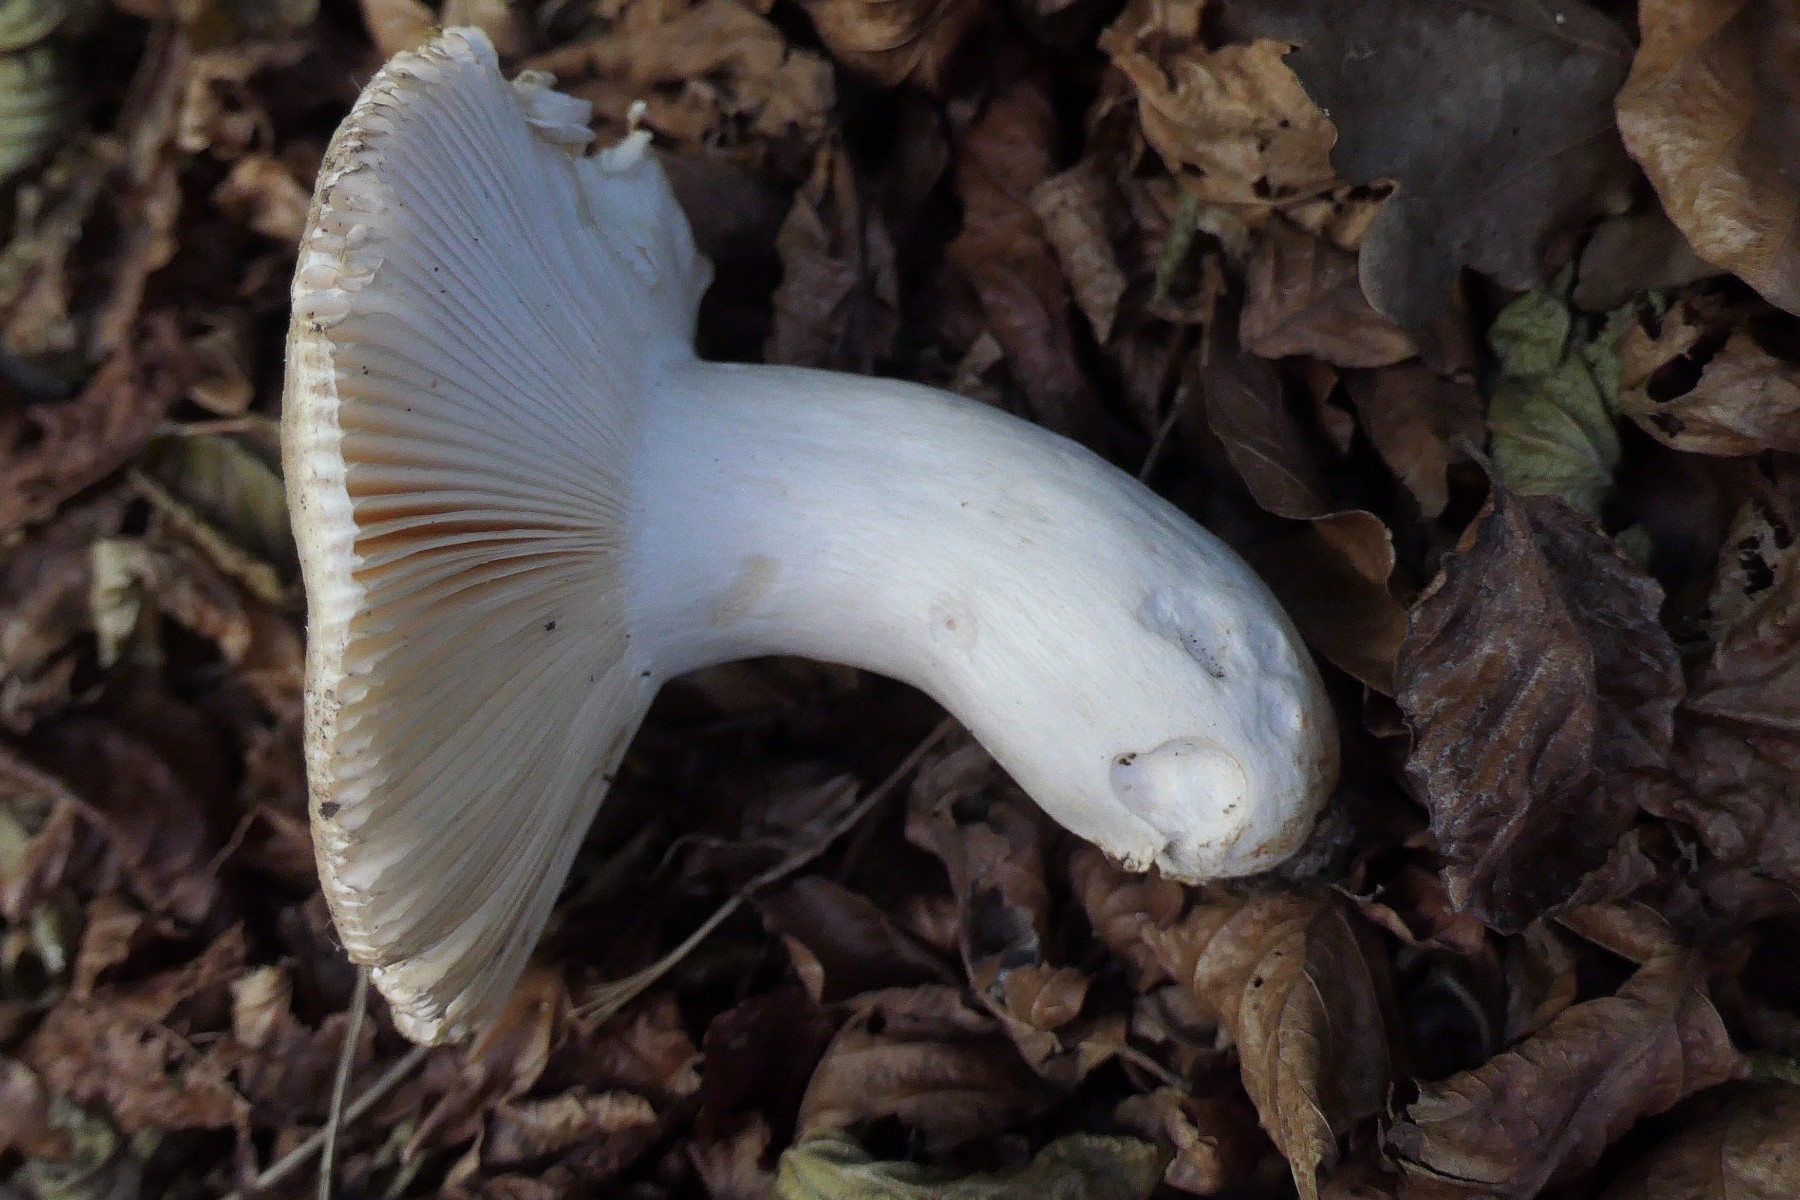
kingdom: Fungi
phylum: Basidiomycota
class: Agaricomycetes
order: Russulales
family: Russulaceae
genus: Russula
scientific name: Russula faustiana
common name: olivengrå skørhat
